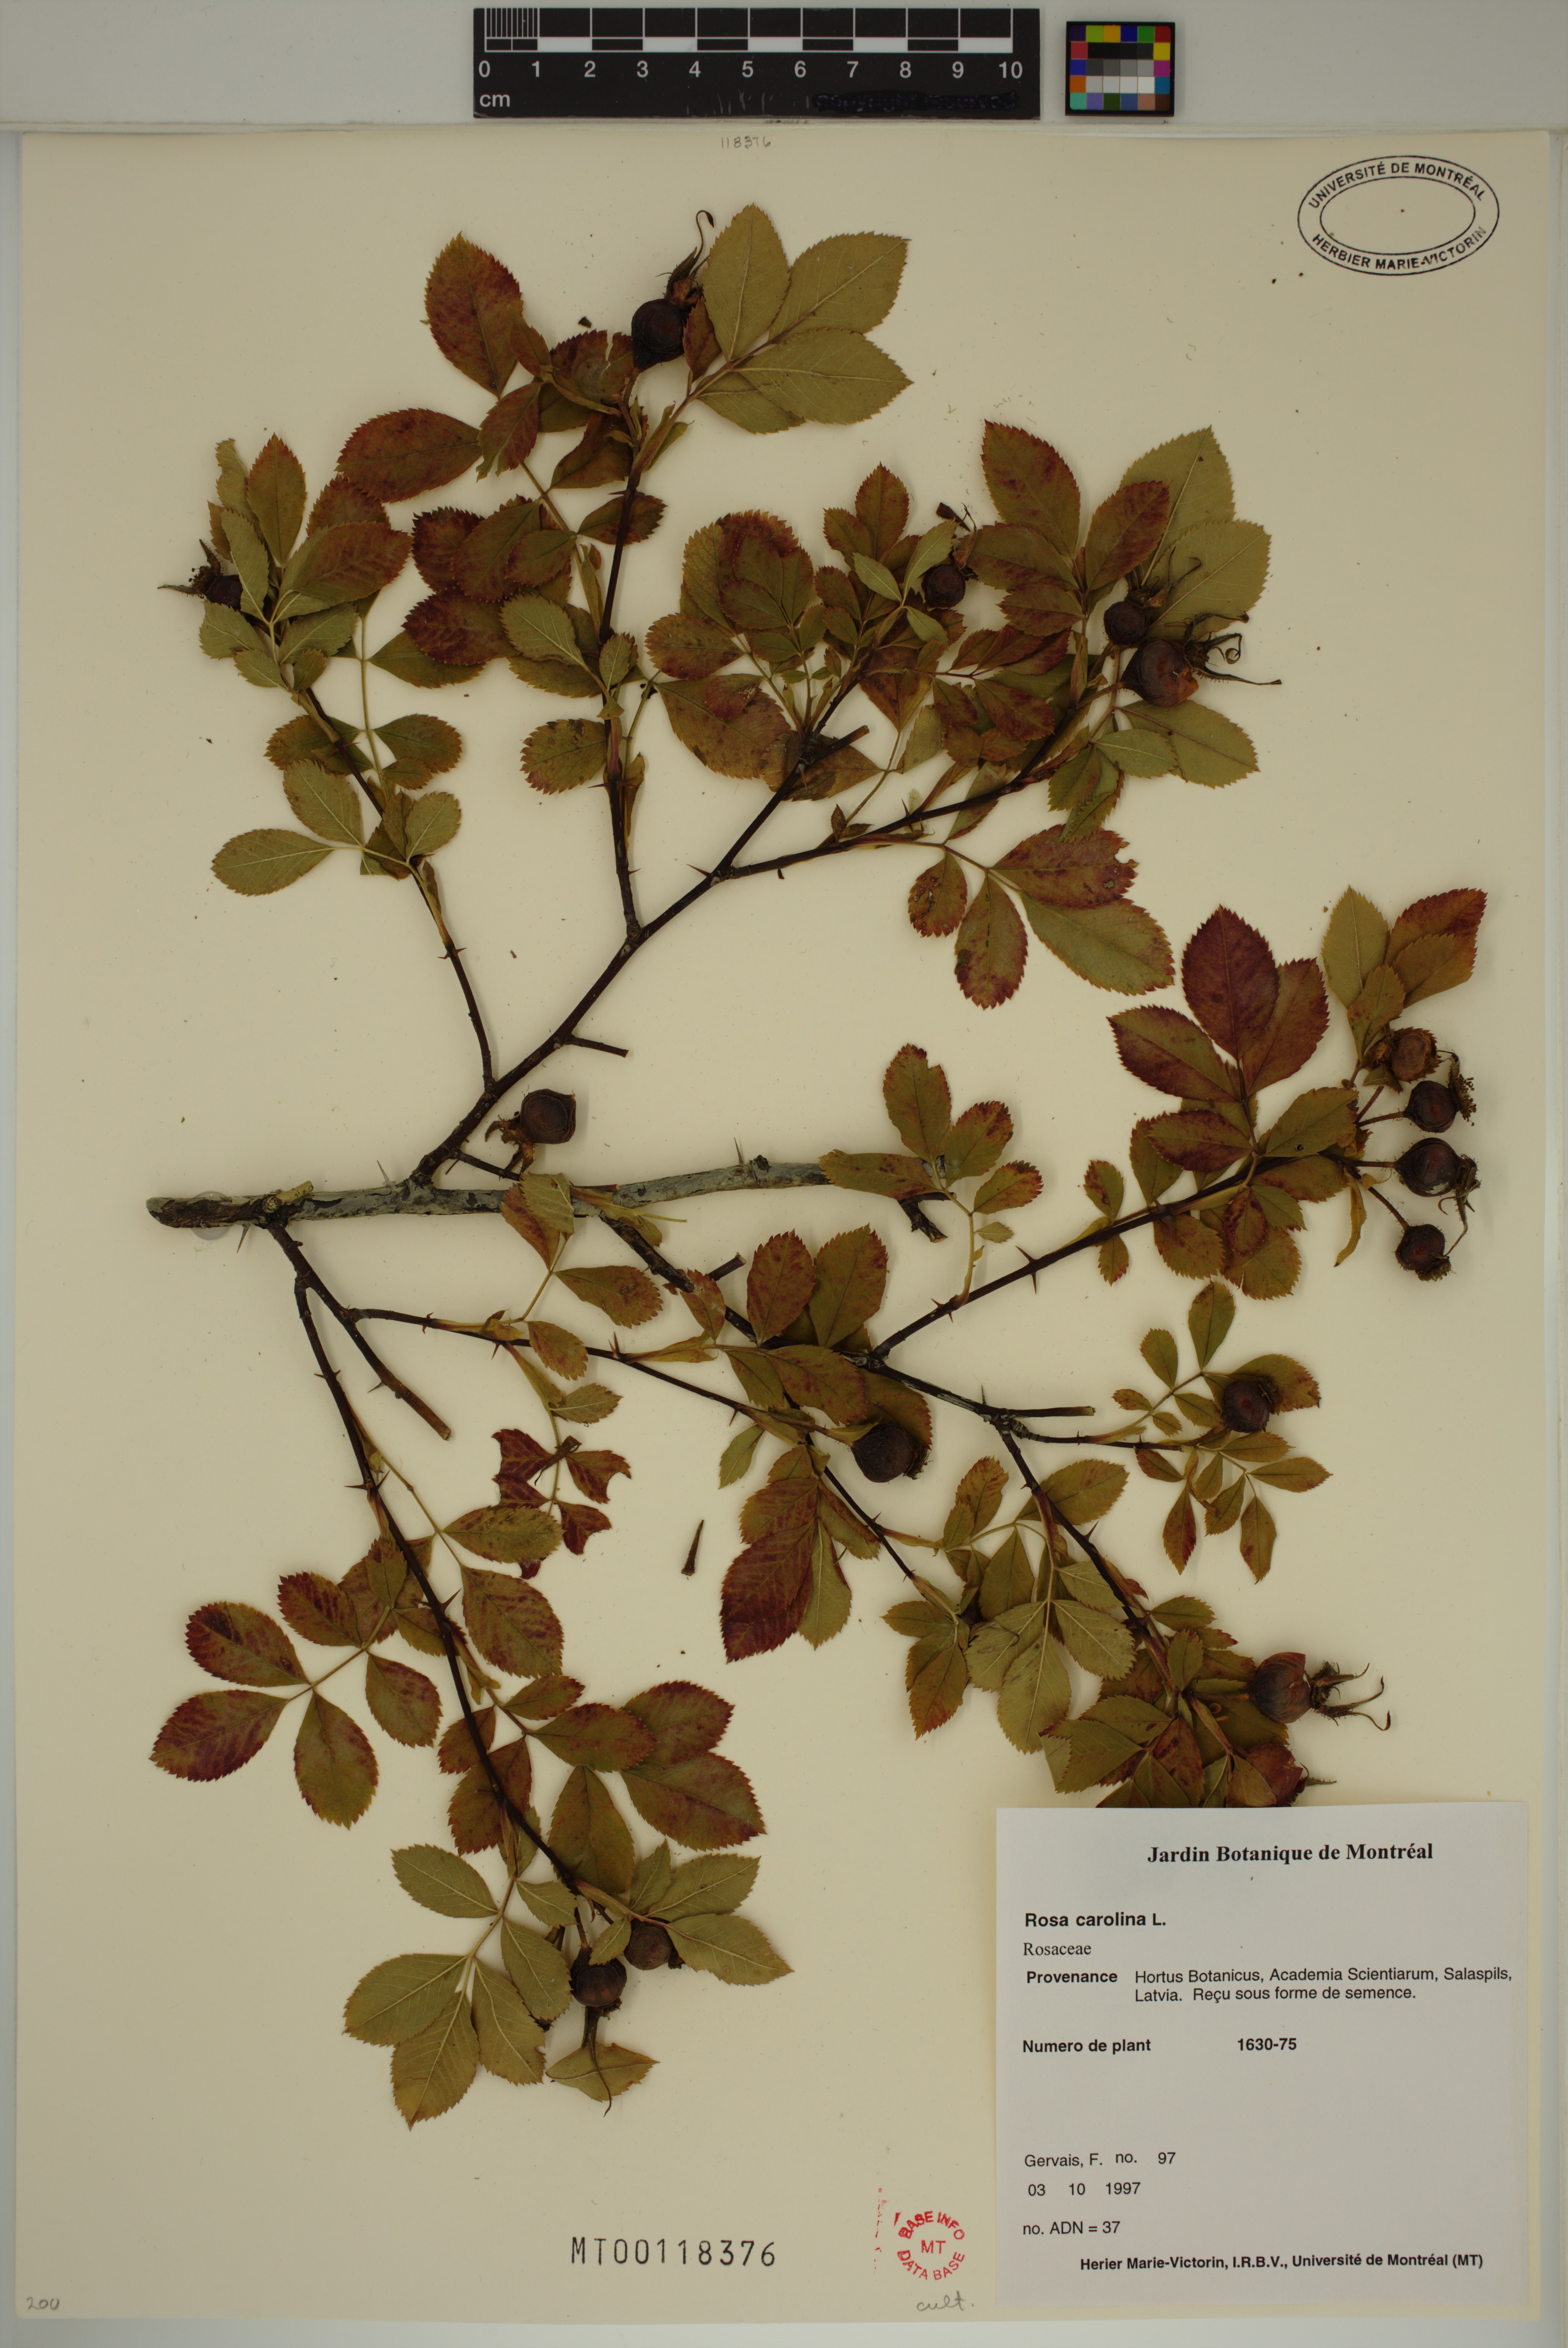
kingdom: Plantae
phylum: Tracheophyta
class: Magnoliopsida
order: Rosales
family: Rosaceae
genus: Rosa
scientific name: Rosa carolina
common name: Pasture rose
